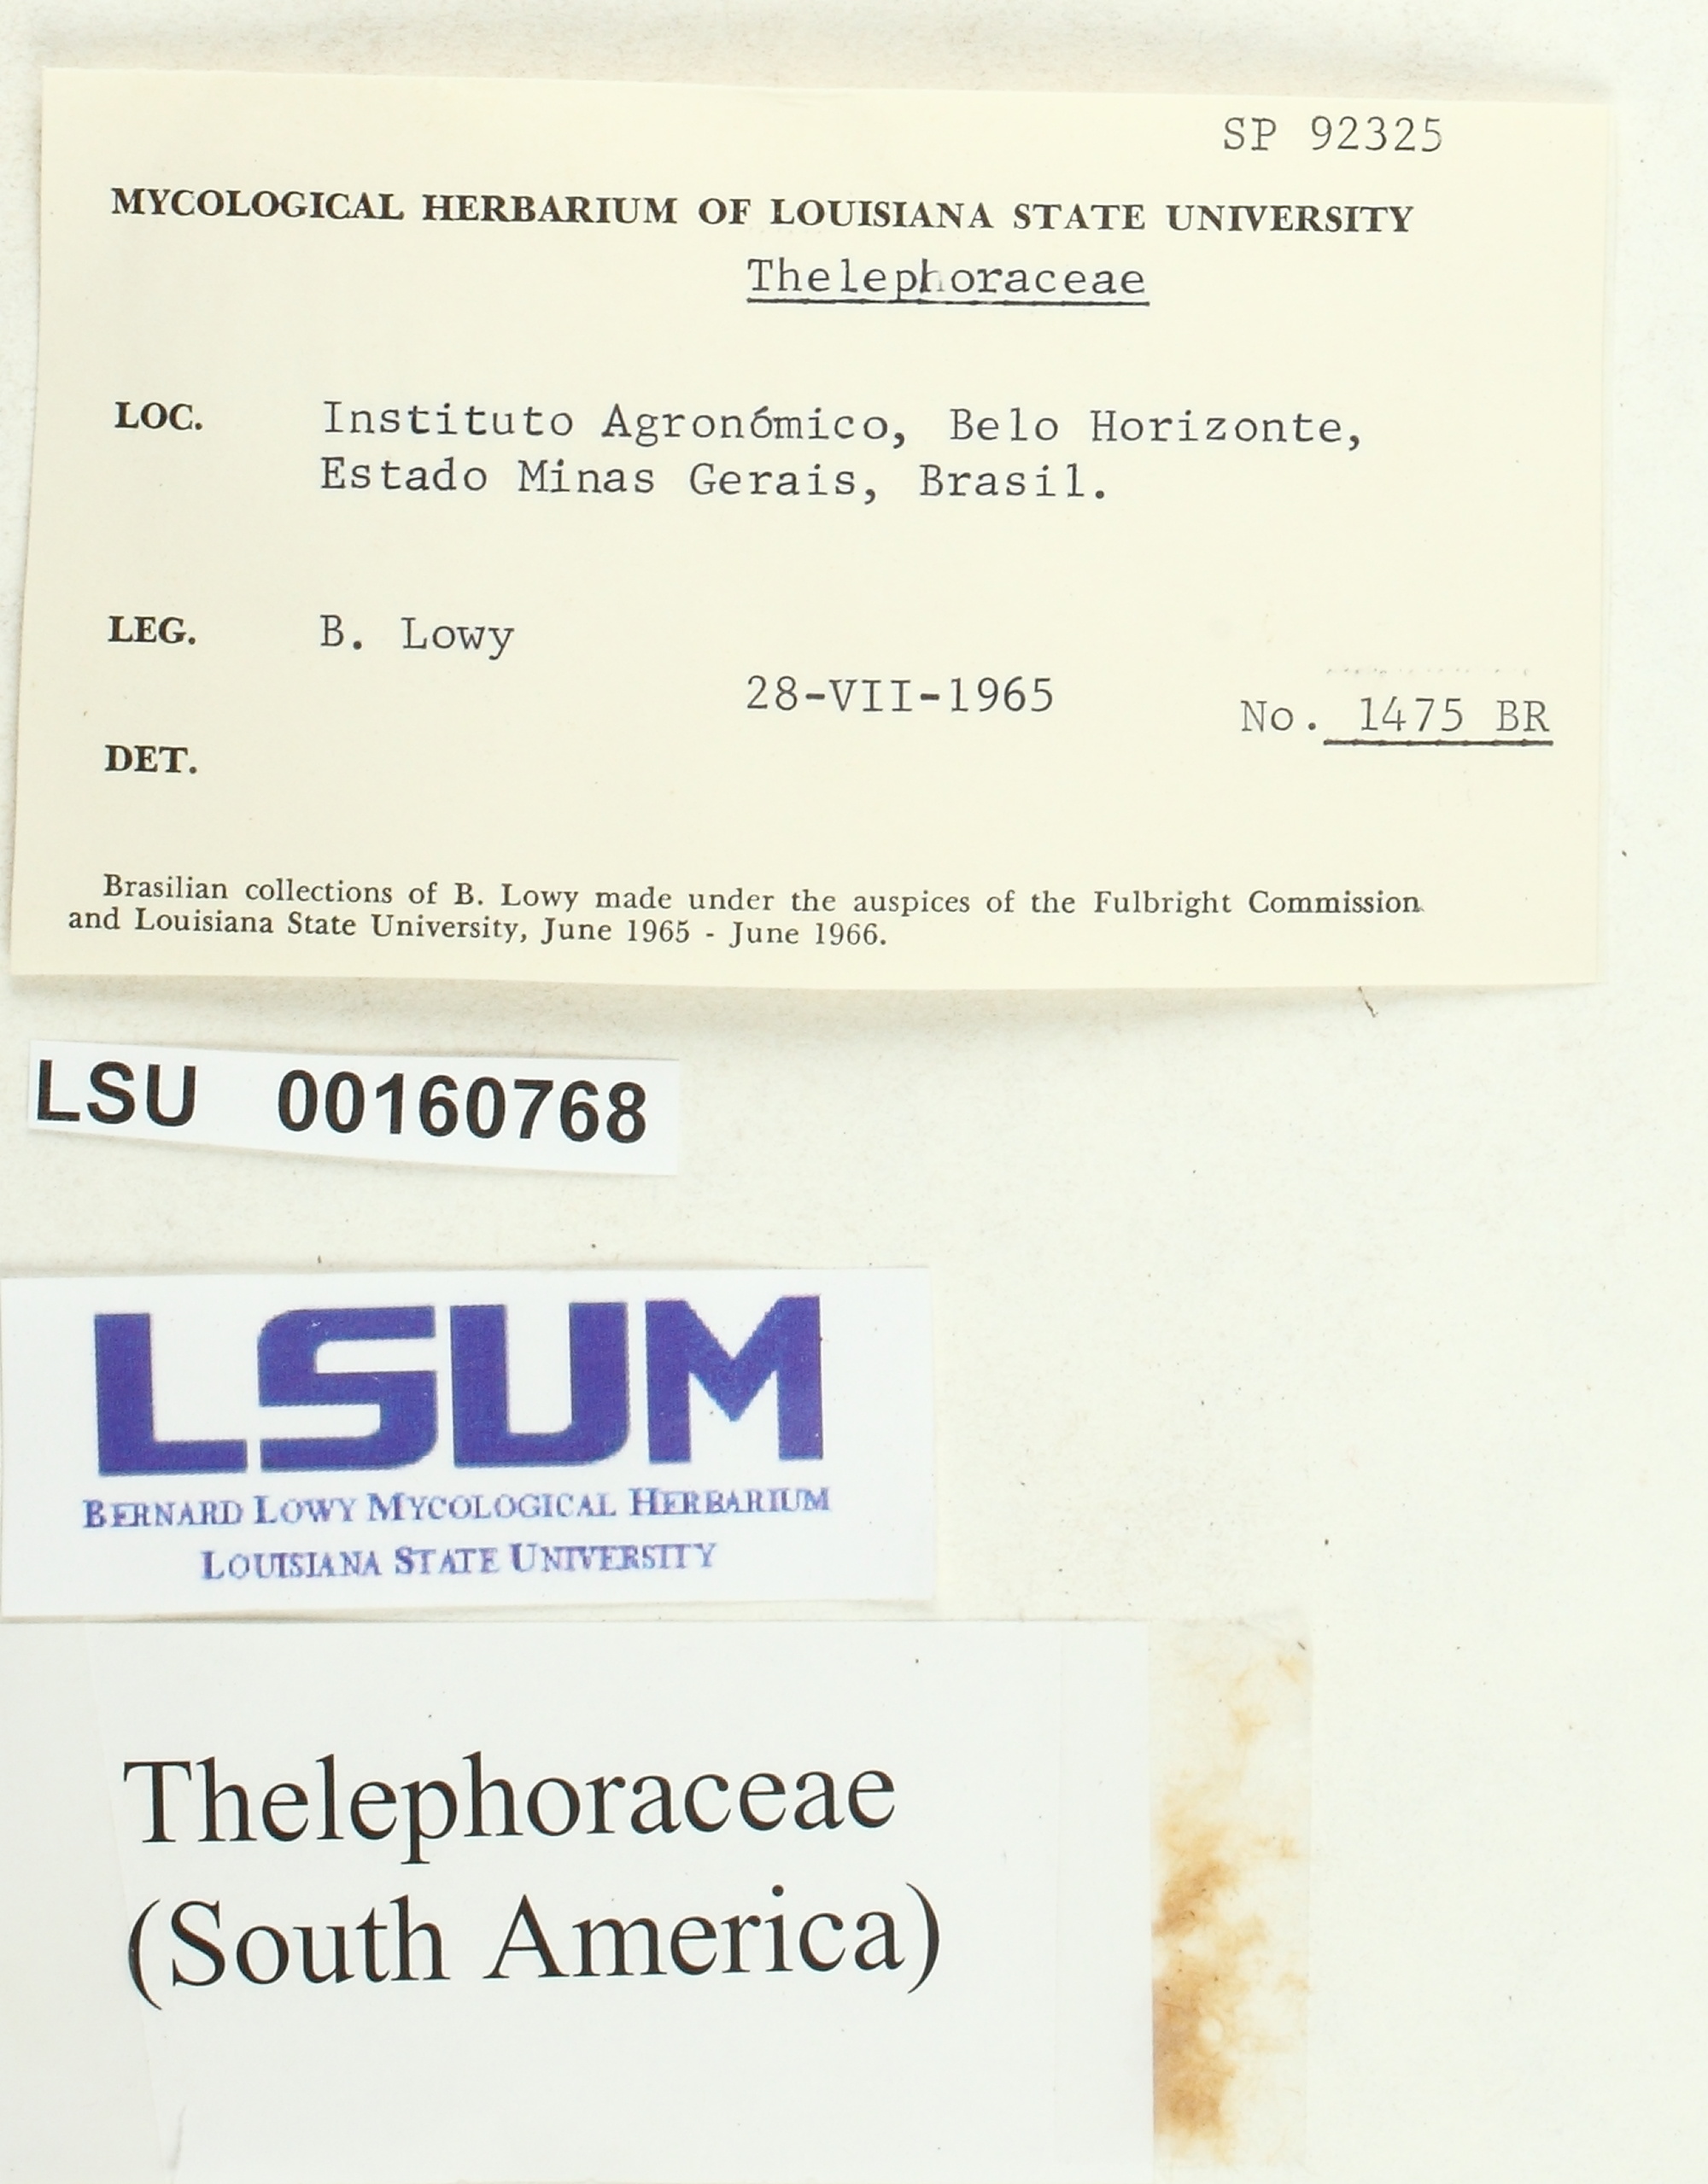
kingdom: Fungi
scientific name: Fungi
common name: Fungi
